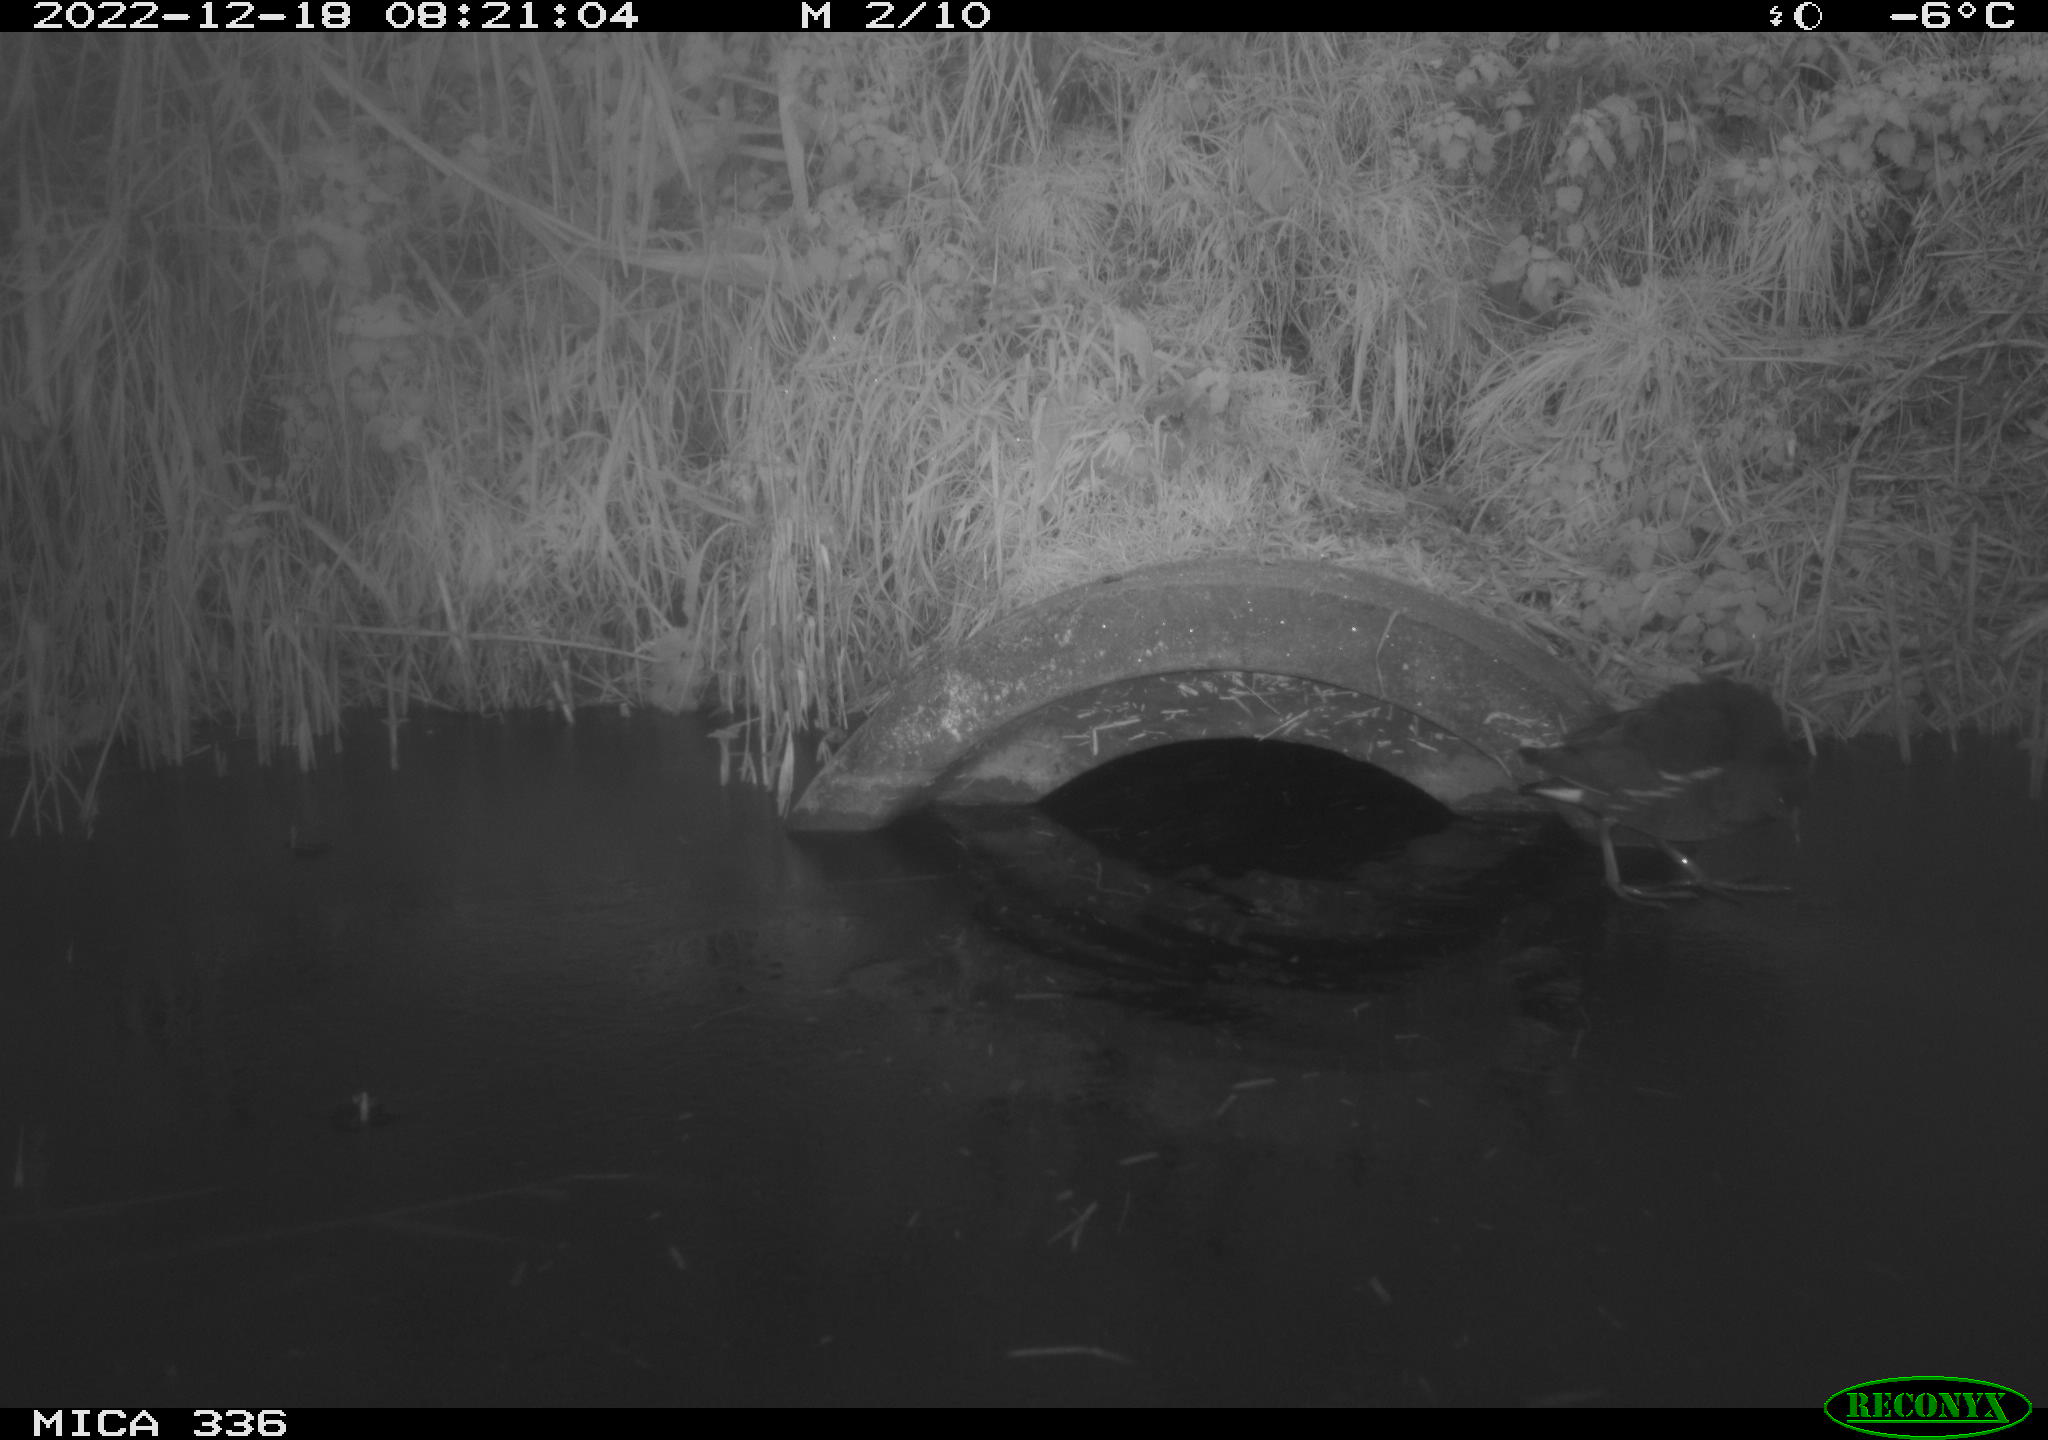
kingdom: Animalia
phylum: Chordata
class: Aves
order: Gruiformes
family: Rallidae
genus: Gallinula
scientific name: Gallinula chloropus
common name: Common moorhen
